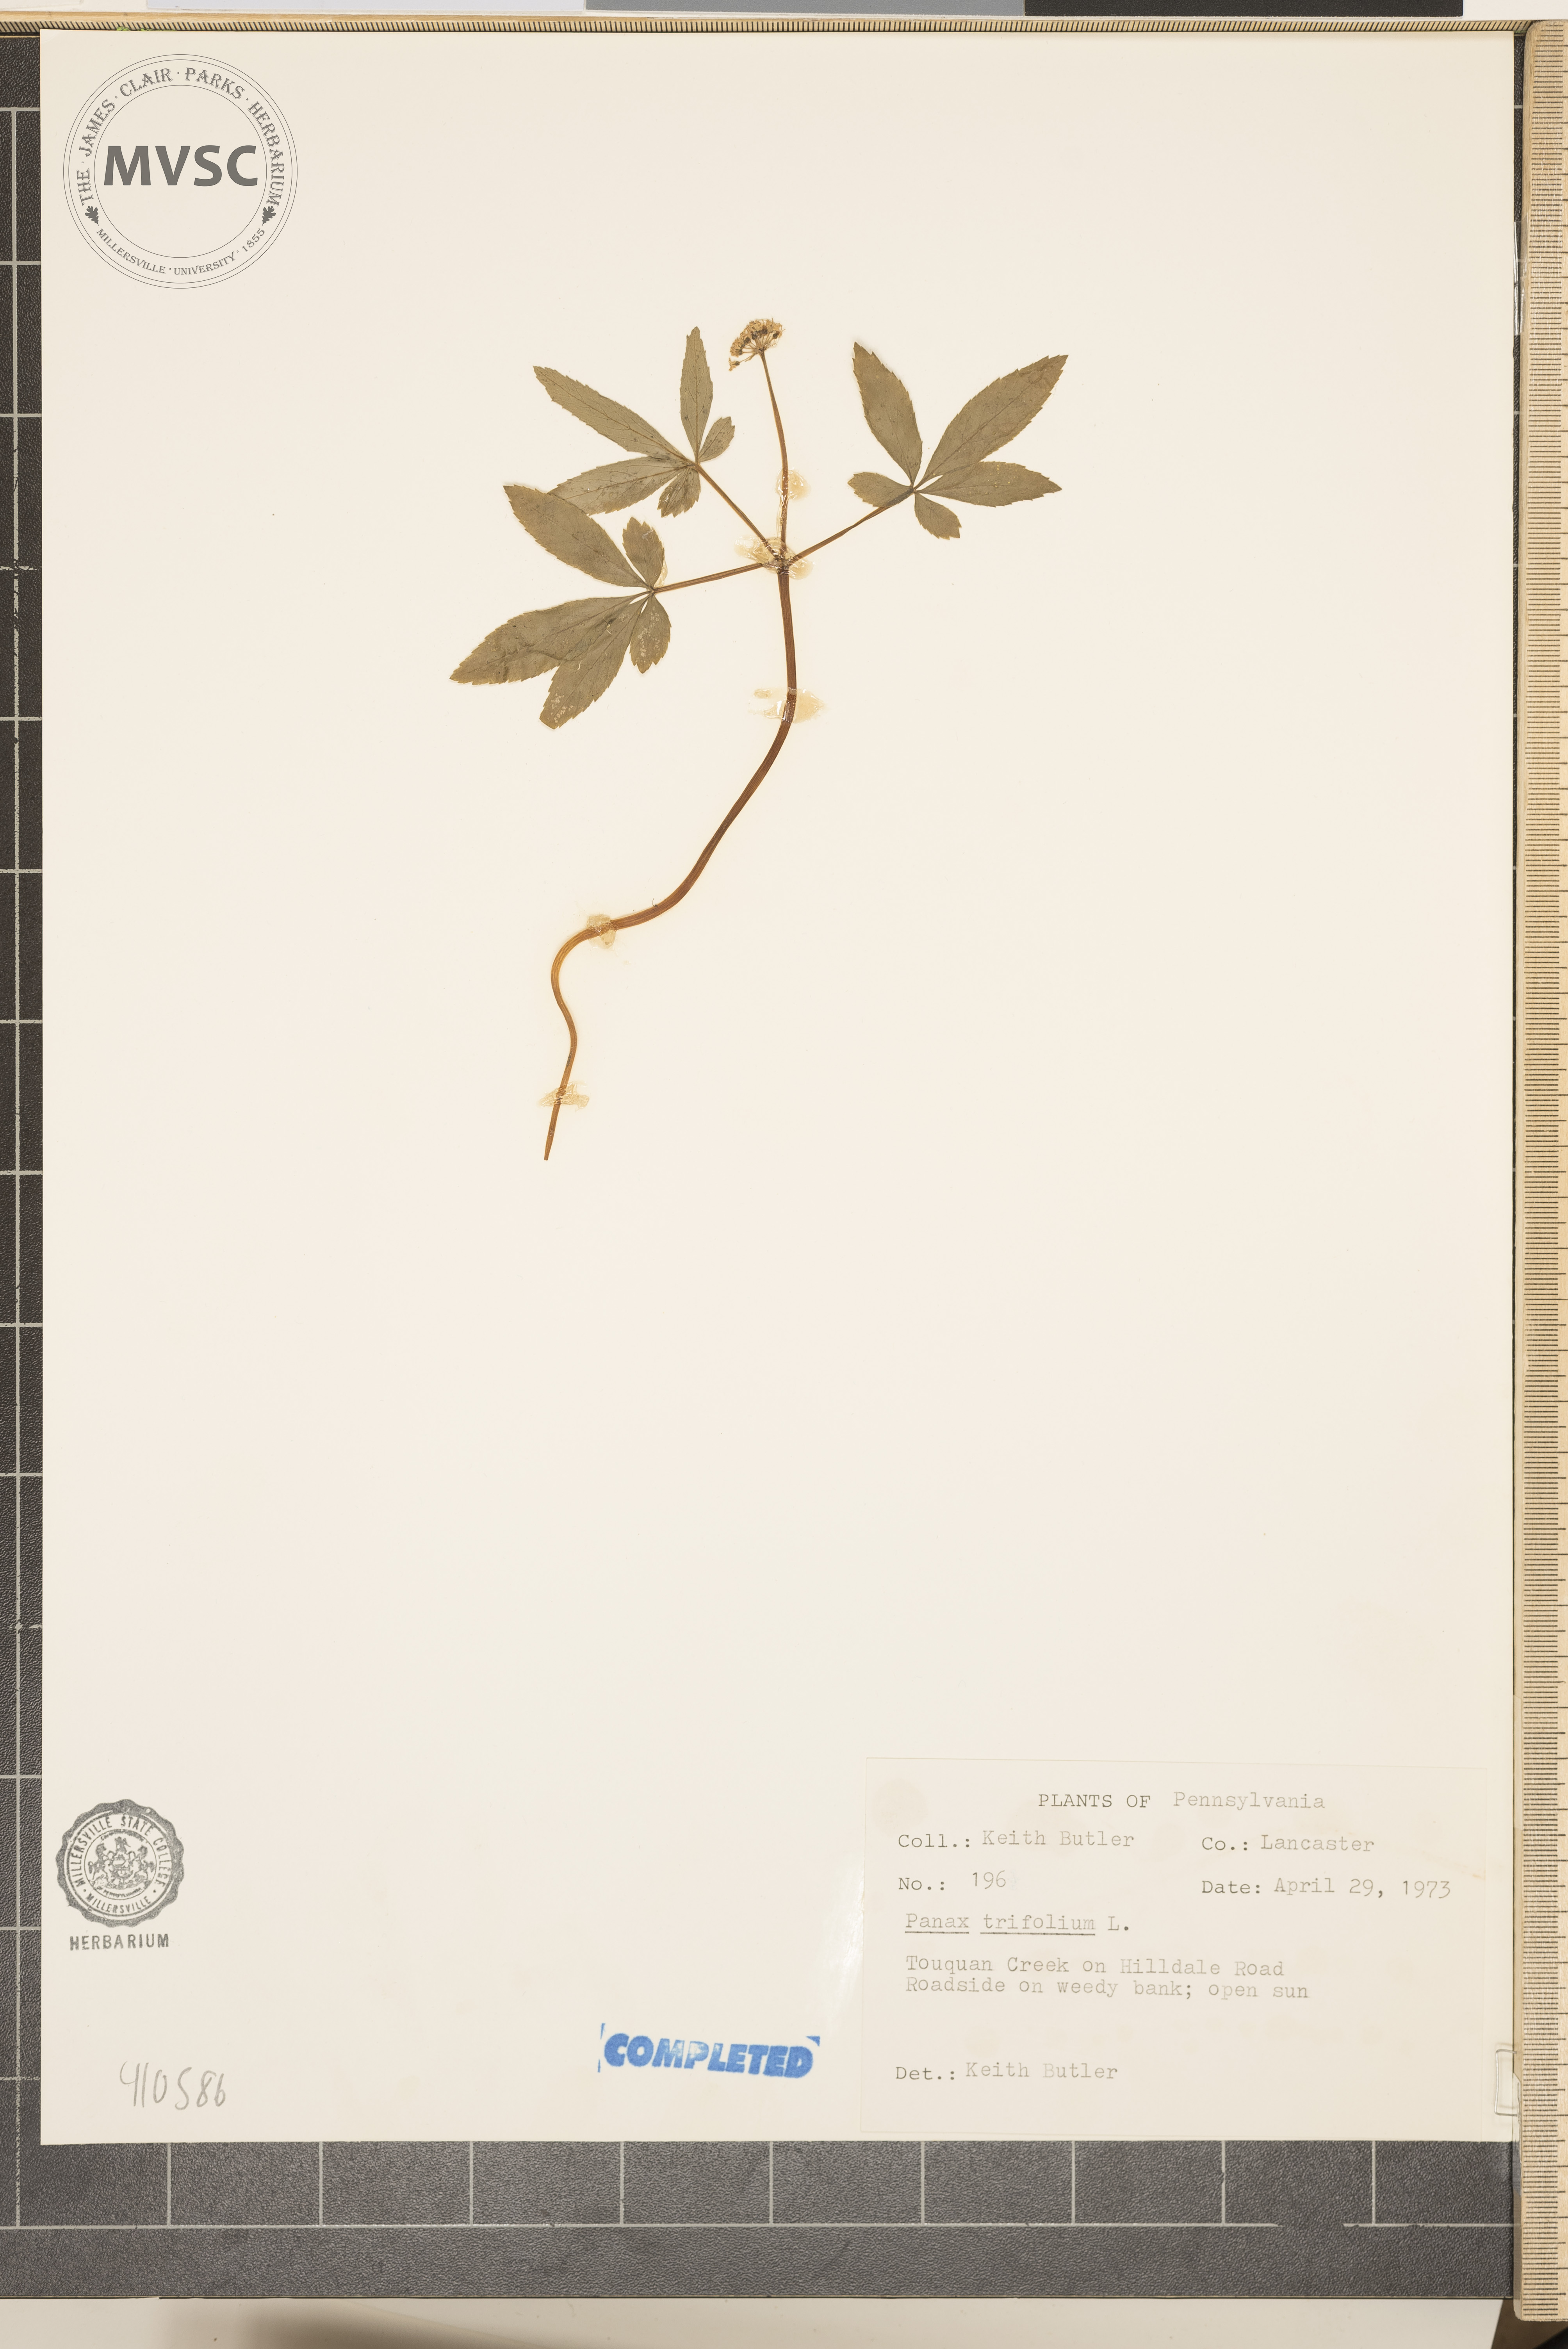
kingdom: Plantae
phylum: Tracheophyta
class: Magnoliopsida
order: Apiales
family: Araliaceae
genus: Panax
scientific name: Panax trifolius
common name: Dwarf ginseng
